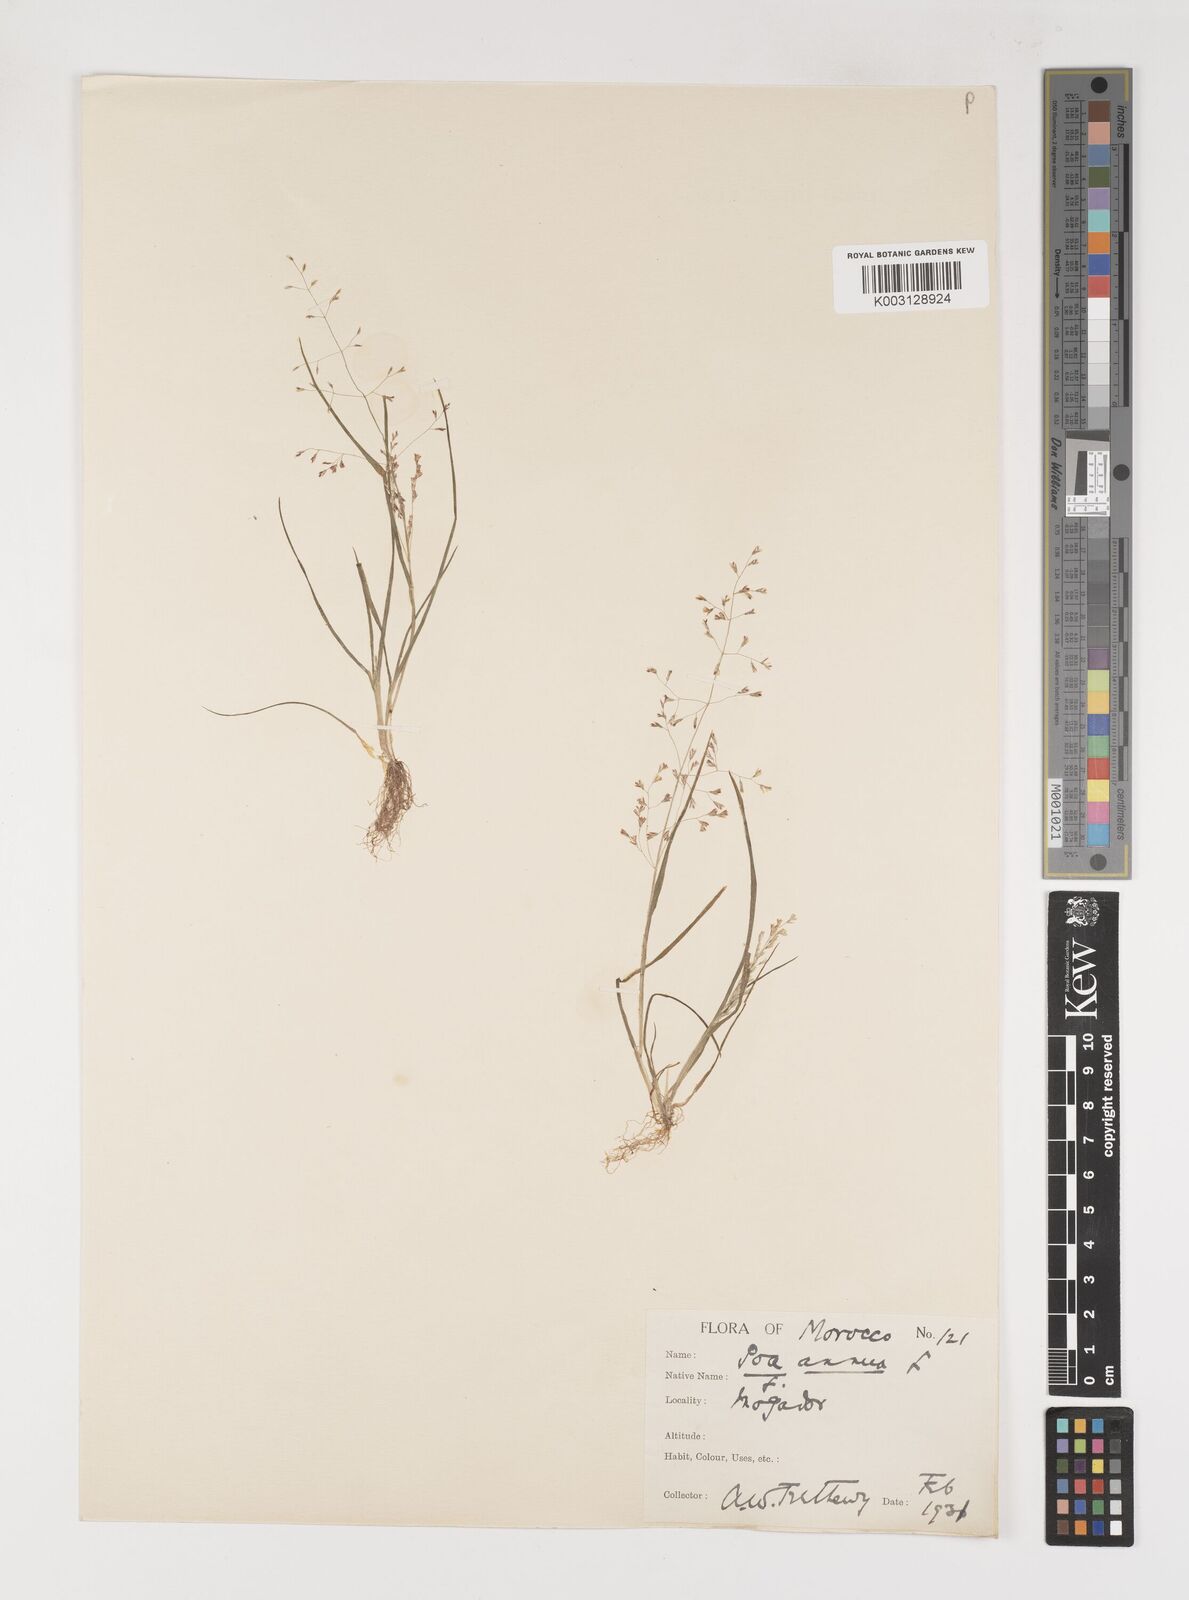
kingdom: Plantae
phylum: Tracheophyta
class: Liliopsida
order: Poales
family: Poaceae
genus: Poa
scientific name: Poa dimorphantha
